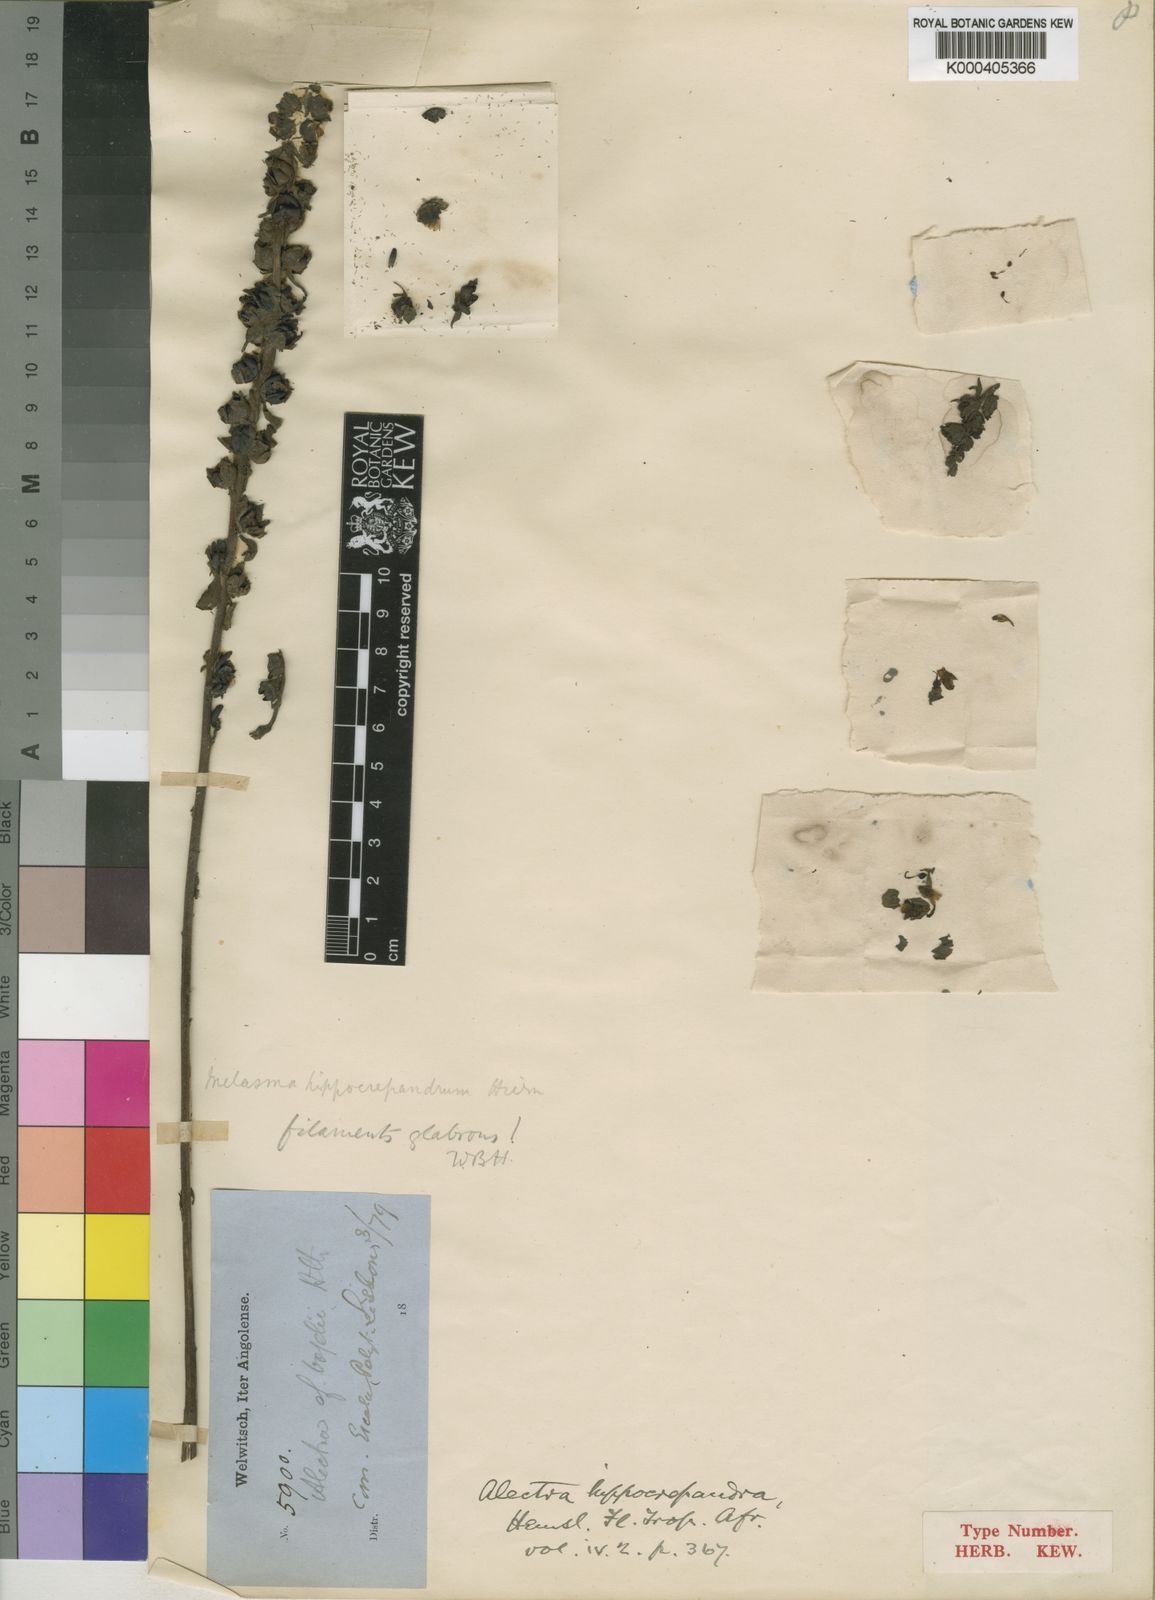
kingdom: Plantae
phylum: Tracheophyta
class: Magnoliopsida
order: Lamiales
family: Orobanchaceae
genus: Alectra
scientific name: Alectra vogelii
